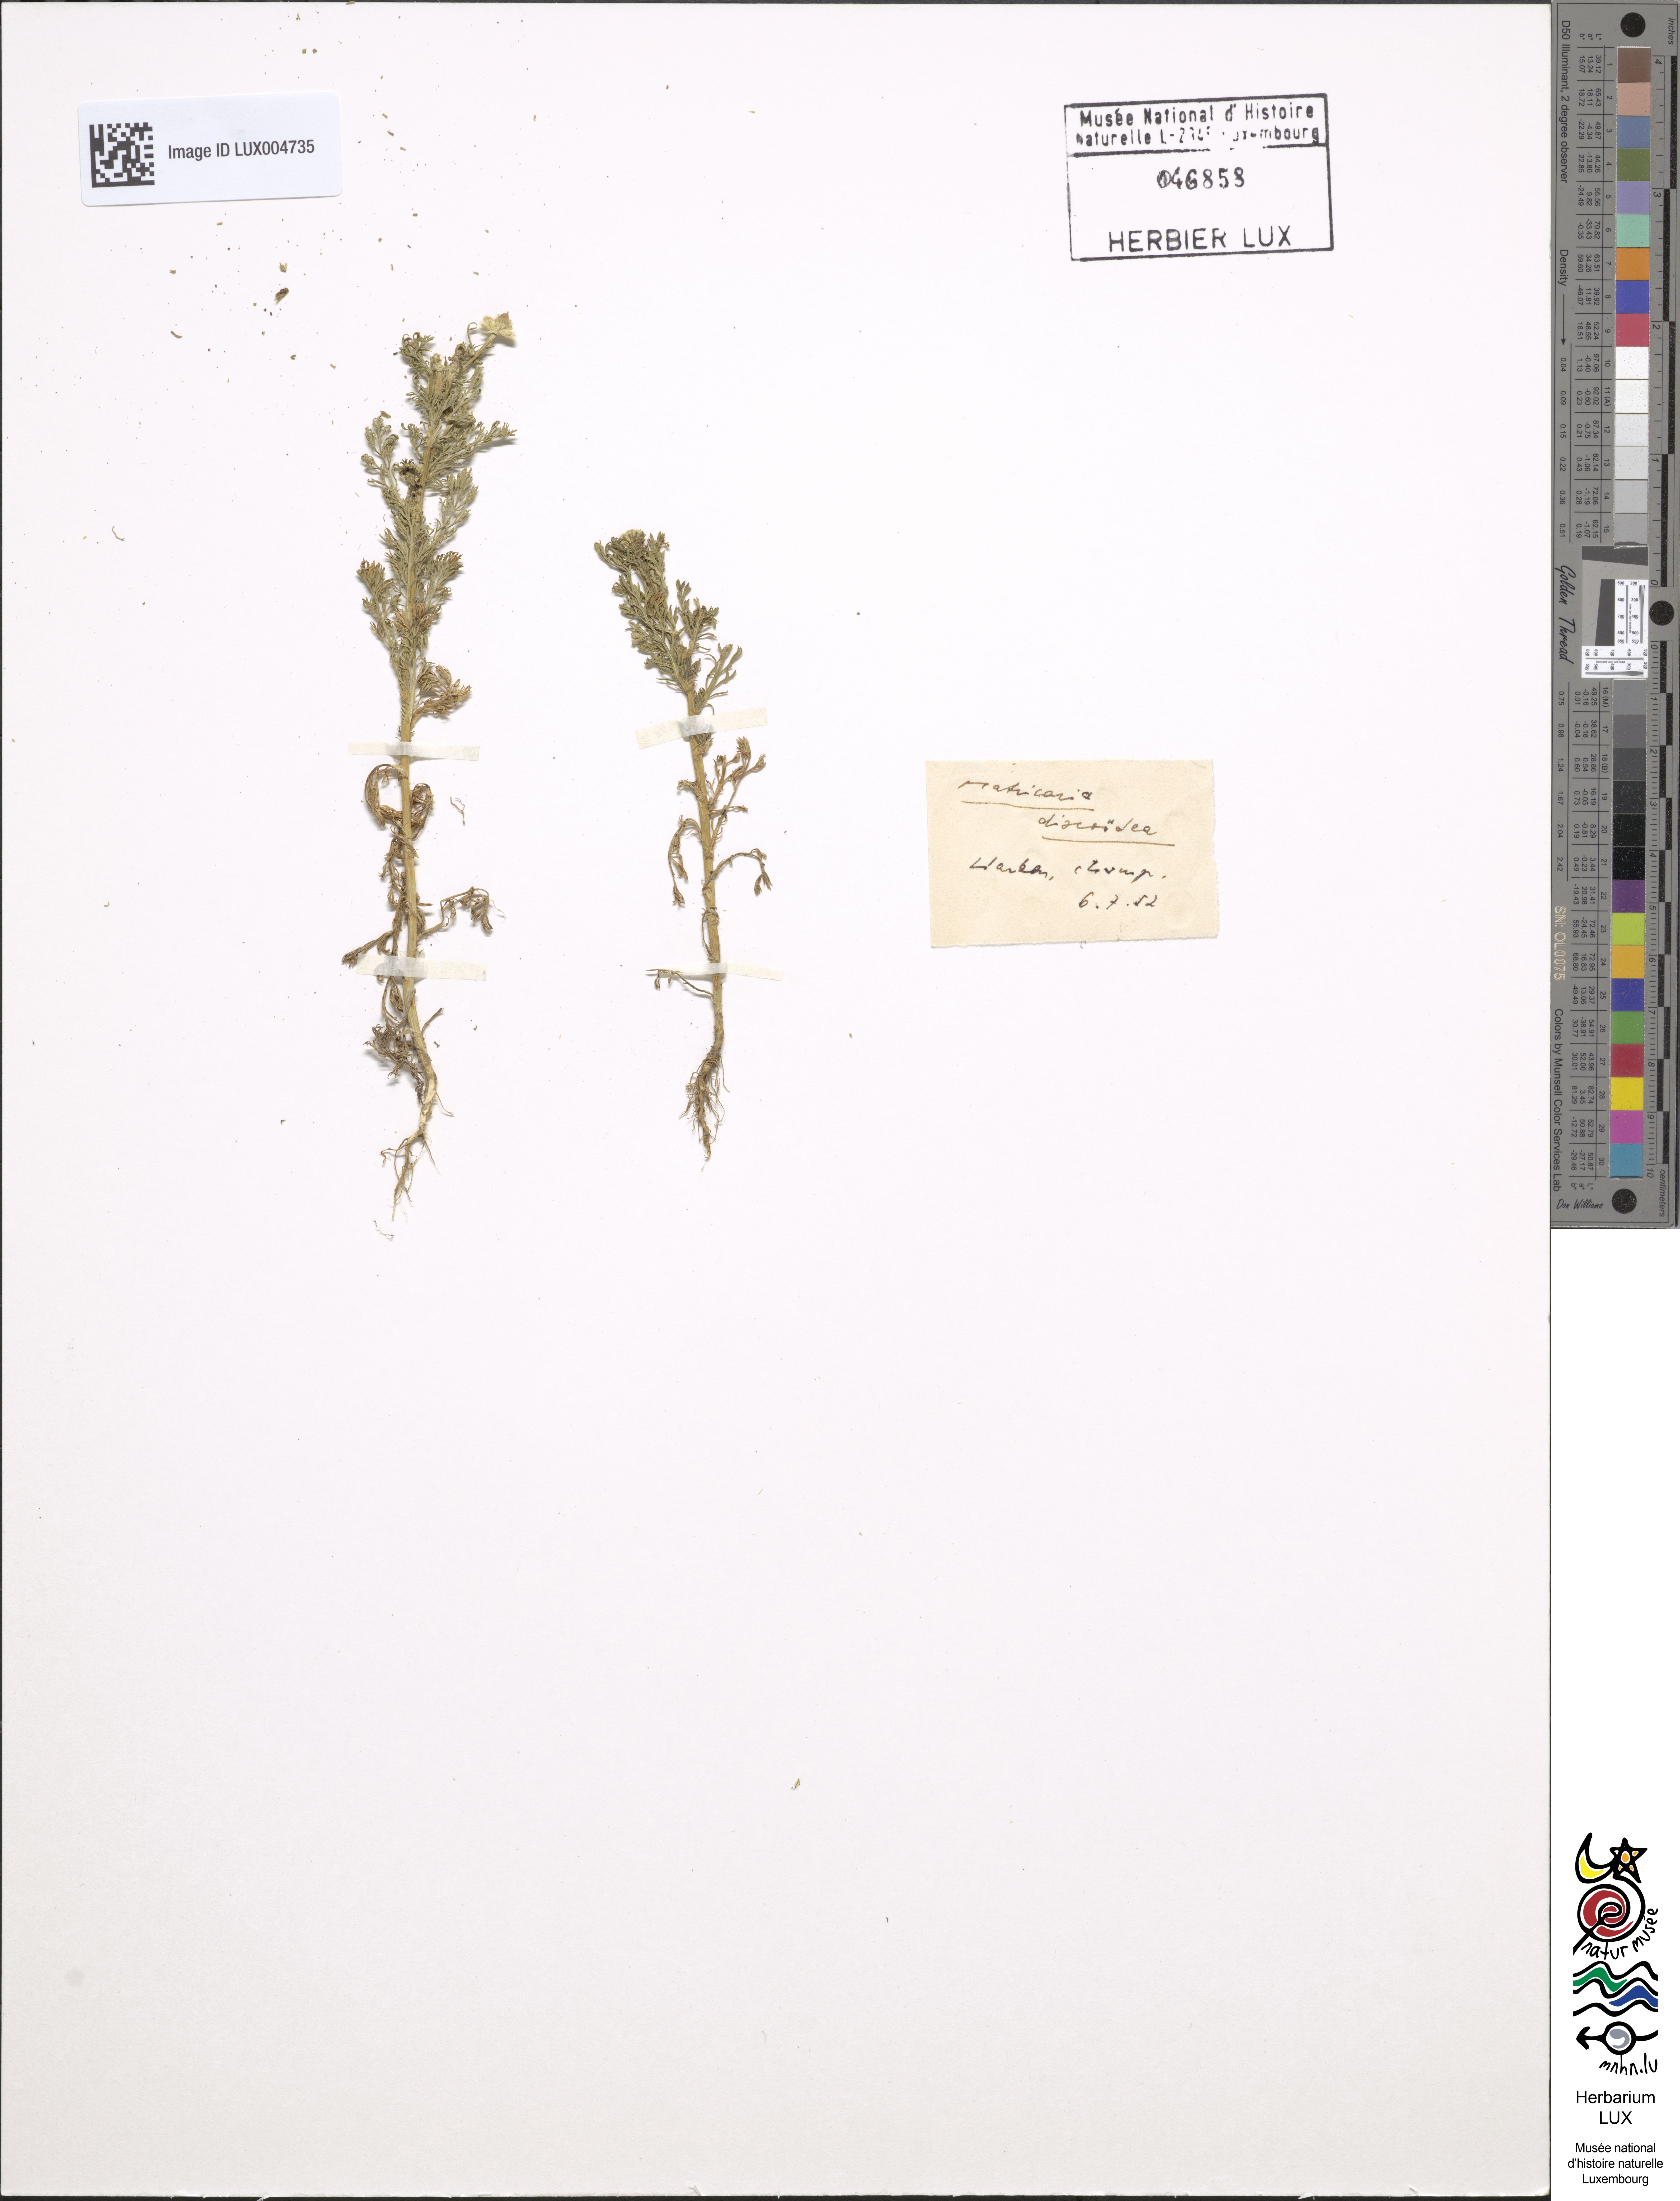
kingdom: Plantae
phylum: Tracheophyta
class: Magnoliopsida
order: Asterales
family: Asteraceae
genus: Matricaria
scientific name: Matricaria discoidea
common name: Disc mayweed
